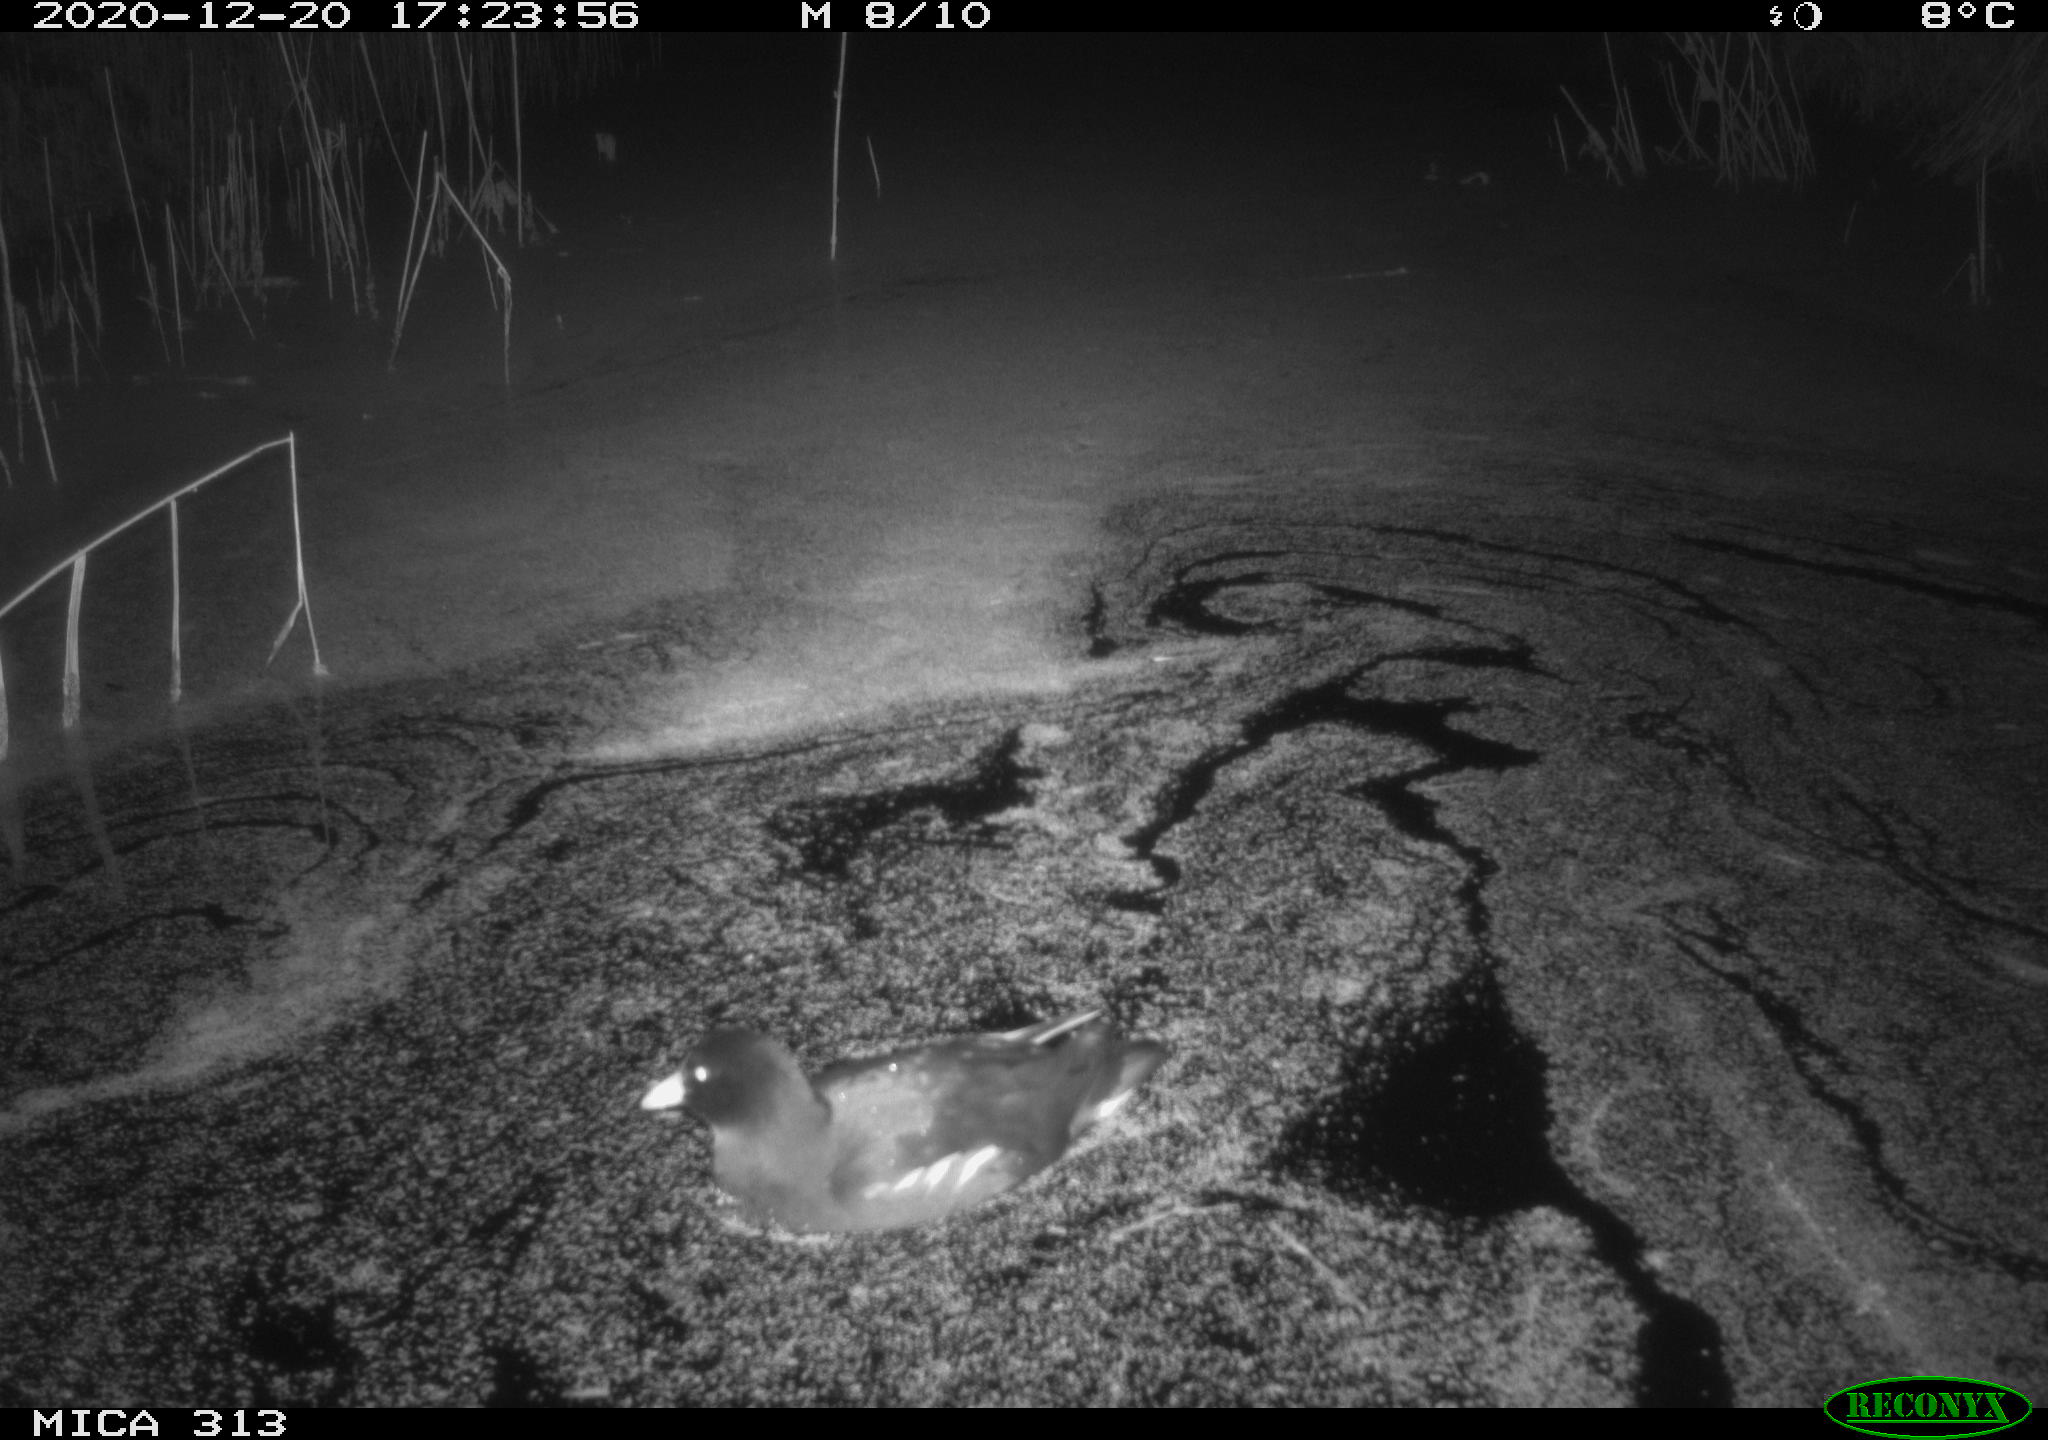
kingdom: Animalia
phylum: Chordata
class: Aves
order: Gruiformes
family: Rallidae
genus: Gallinula
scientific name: Gallinula chloropus
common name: Common moorhen
